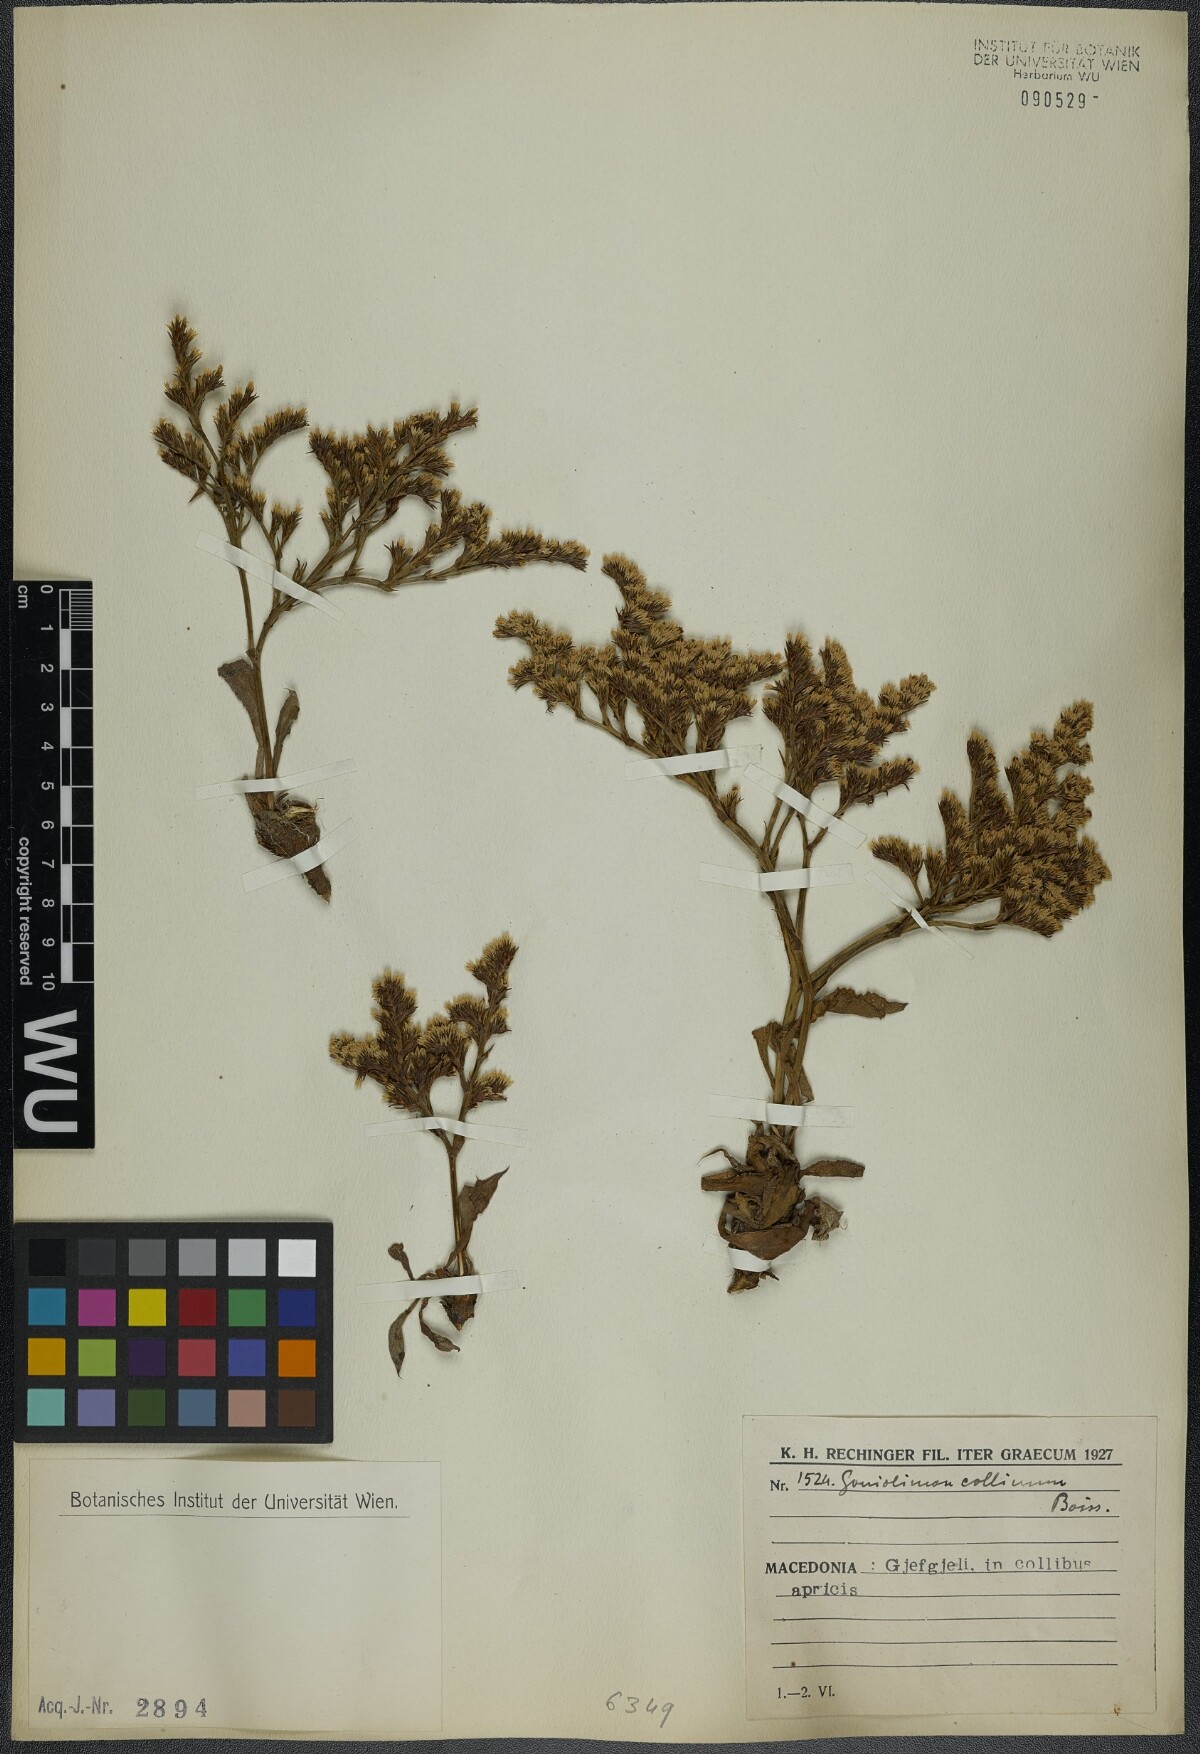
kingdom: Plantae
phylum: Tracheophyta
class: Magnoliopsida
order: Caryophyllales
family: Plumbaginaceae
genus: Goniolimon
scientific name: Goniolimon incanum
